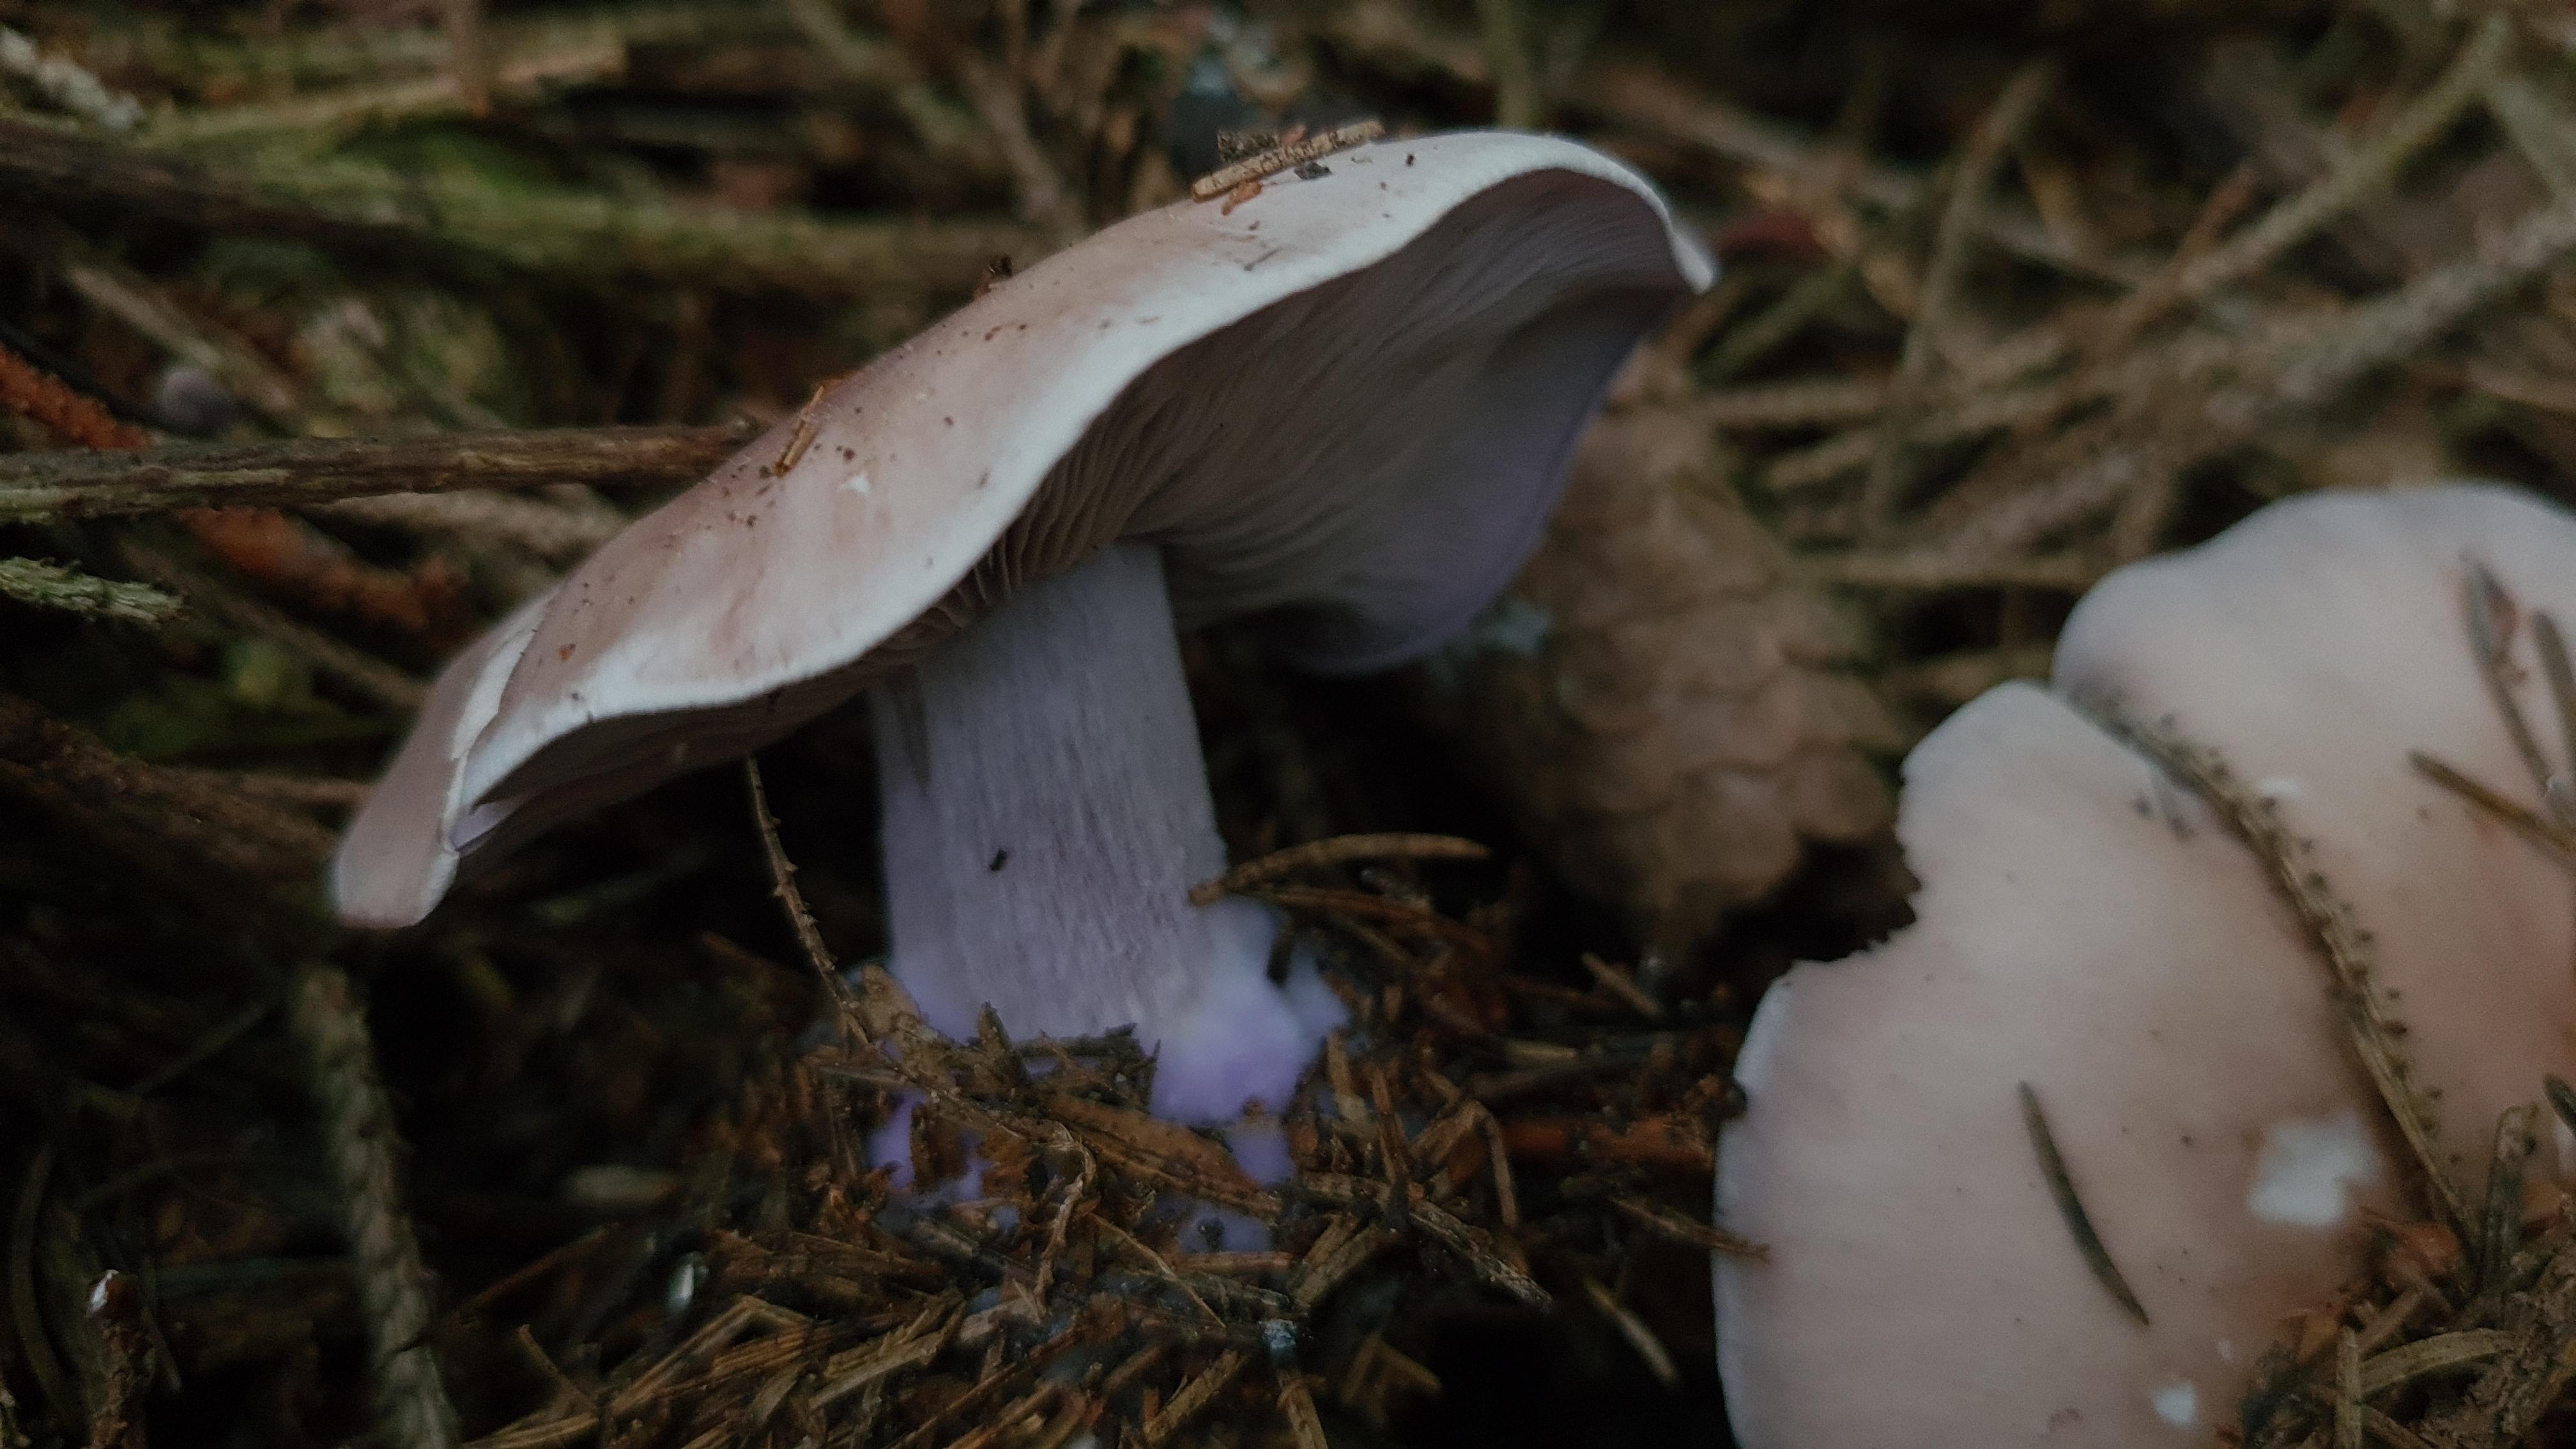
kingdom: Fungi
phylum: Basidiomycota
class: Agaricomycetes
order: Agaricales
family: Tricholomataceae
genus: Lepista
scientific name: Lepista nuda
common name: violet hekseringshat
